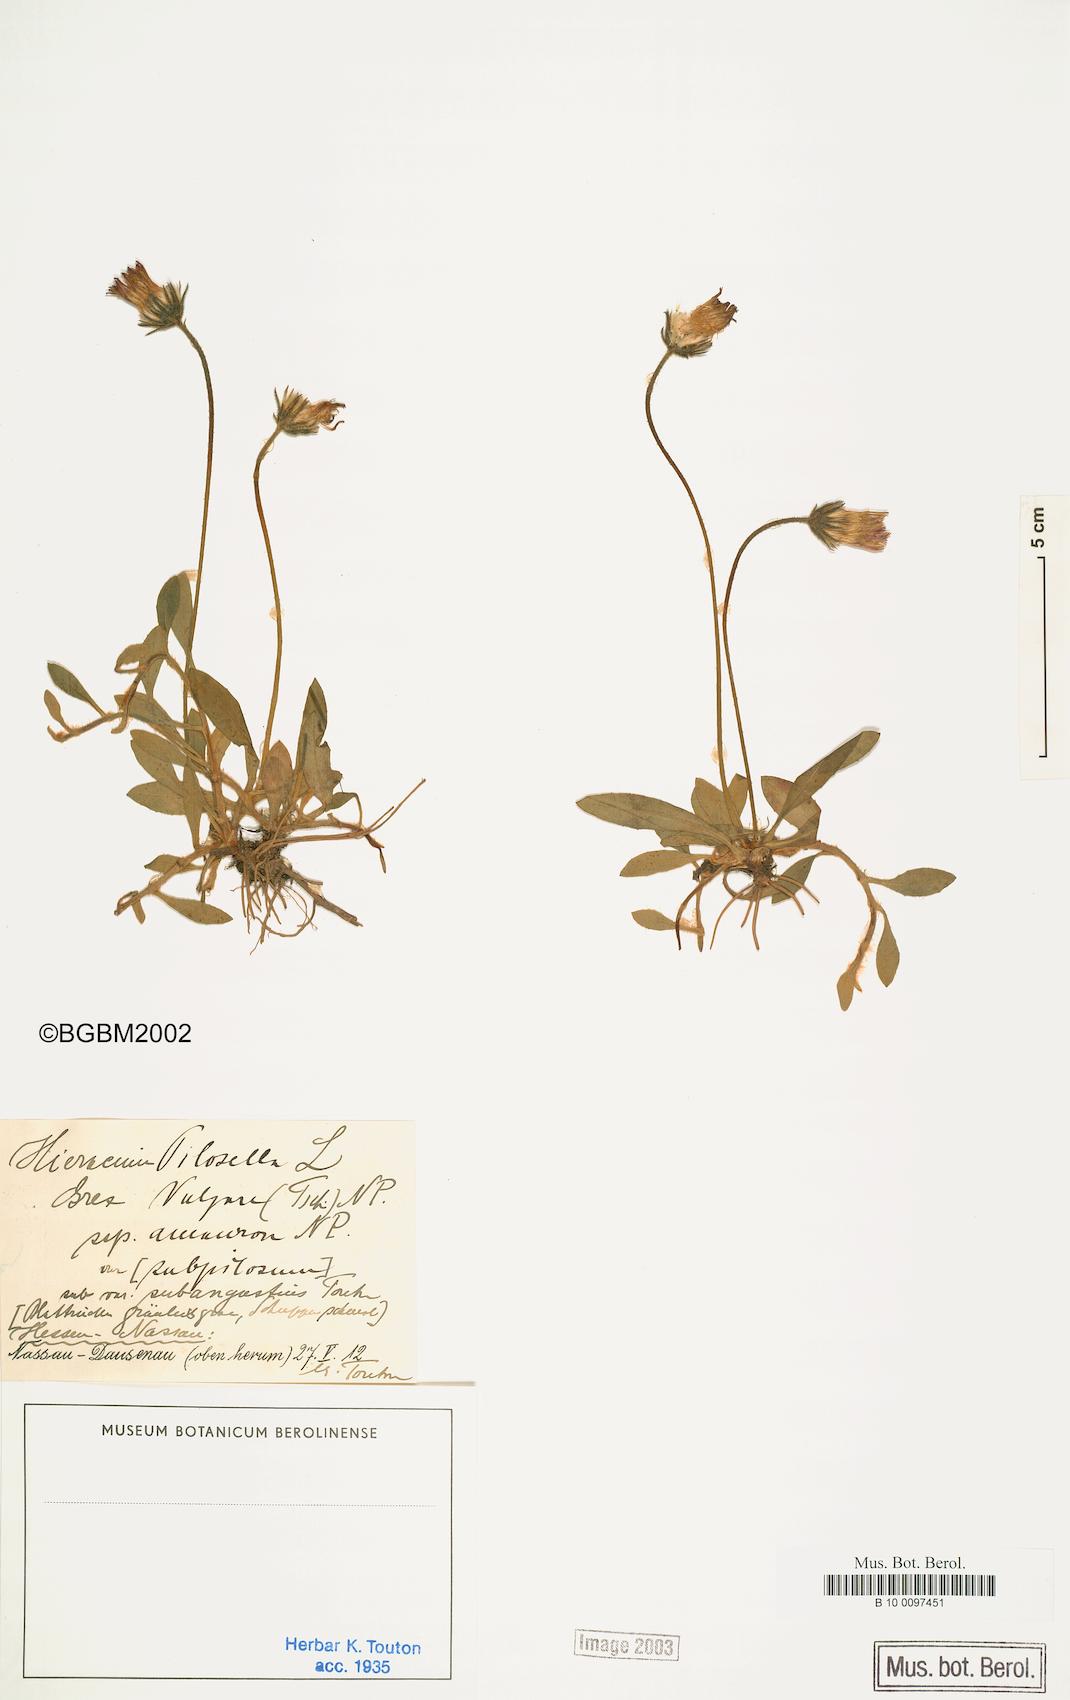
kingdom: Plantae
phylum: Tracheophyta
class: Magnoliopsida
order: Asterales
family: Asteraceae
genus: Pilosella
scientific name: Pilosella officinarum
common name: Mouse-ear hawkweed
